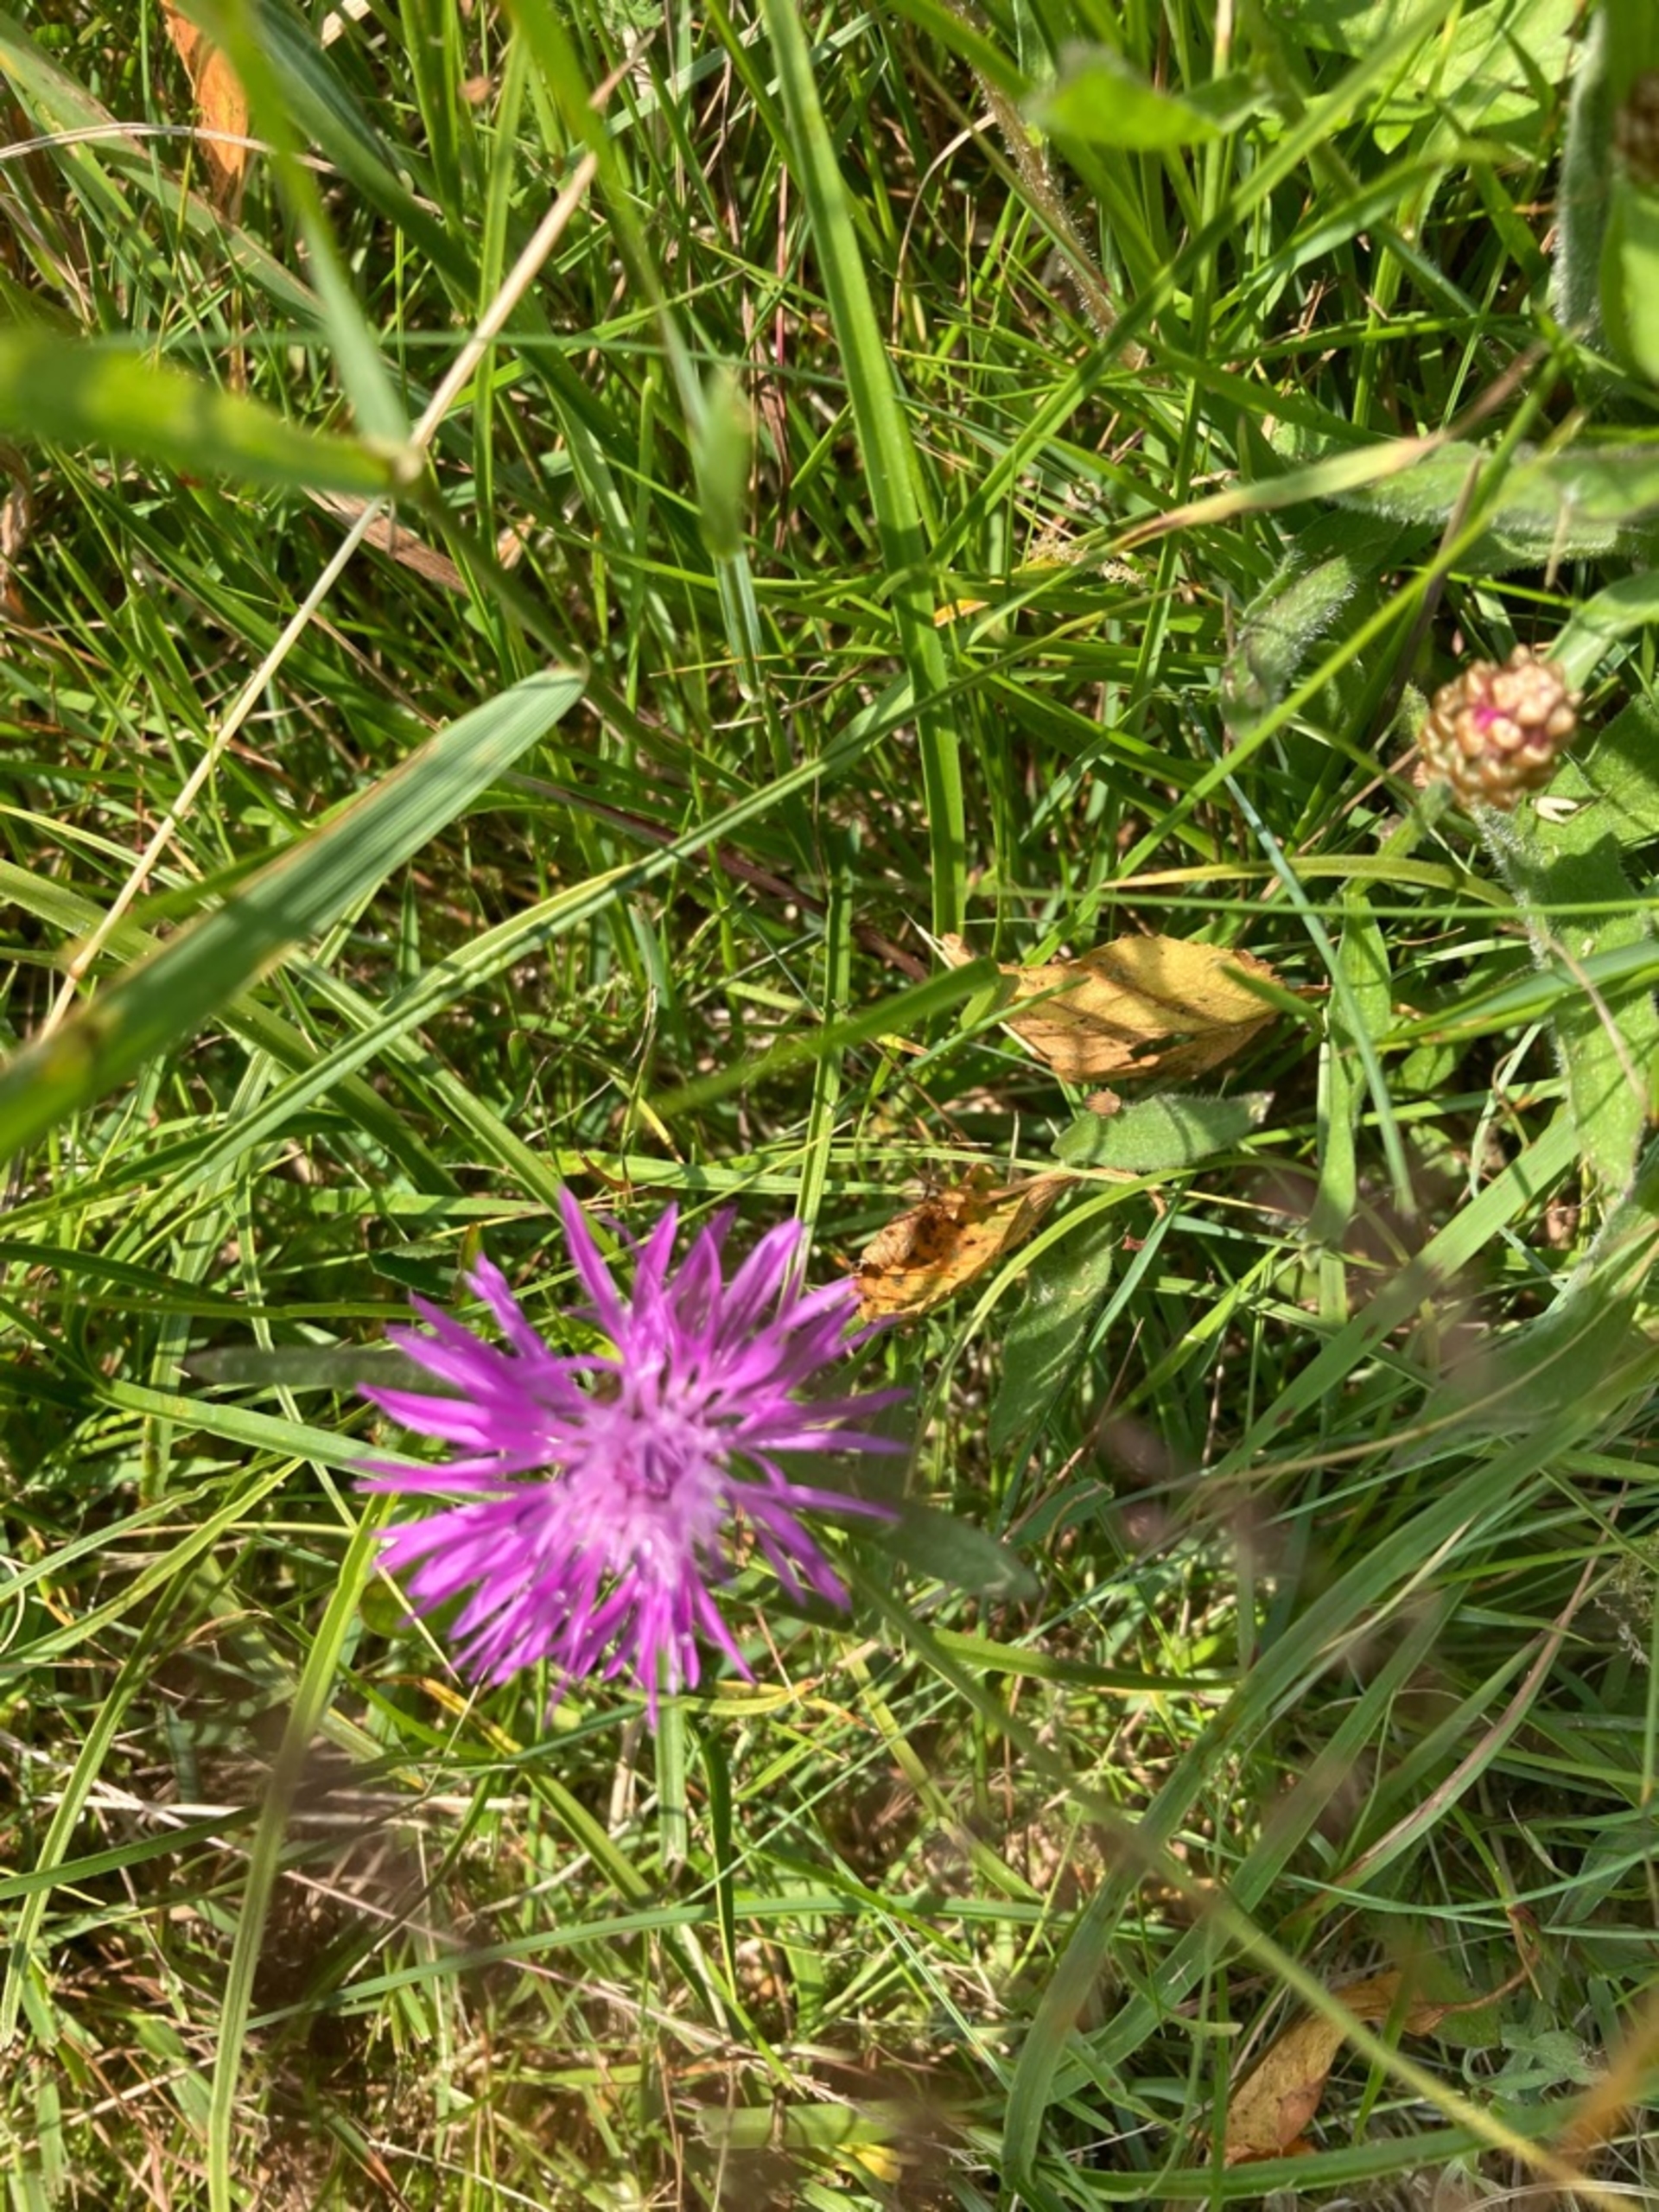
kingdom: Plantae
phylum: Tracheophyta
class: Magnoliopsida
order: Asterales
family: Asteraceae
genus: Centaurea
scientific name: Centaurea jacea
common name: Almindelig knopurt
